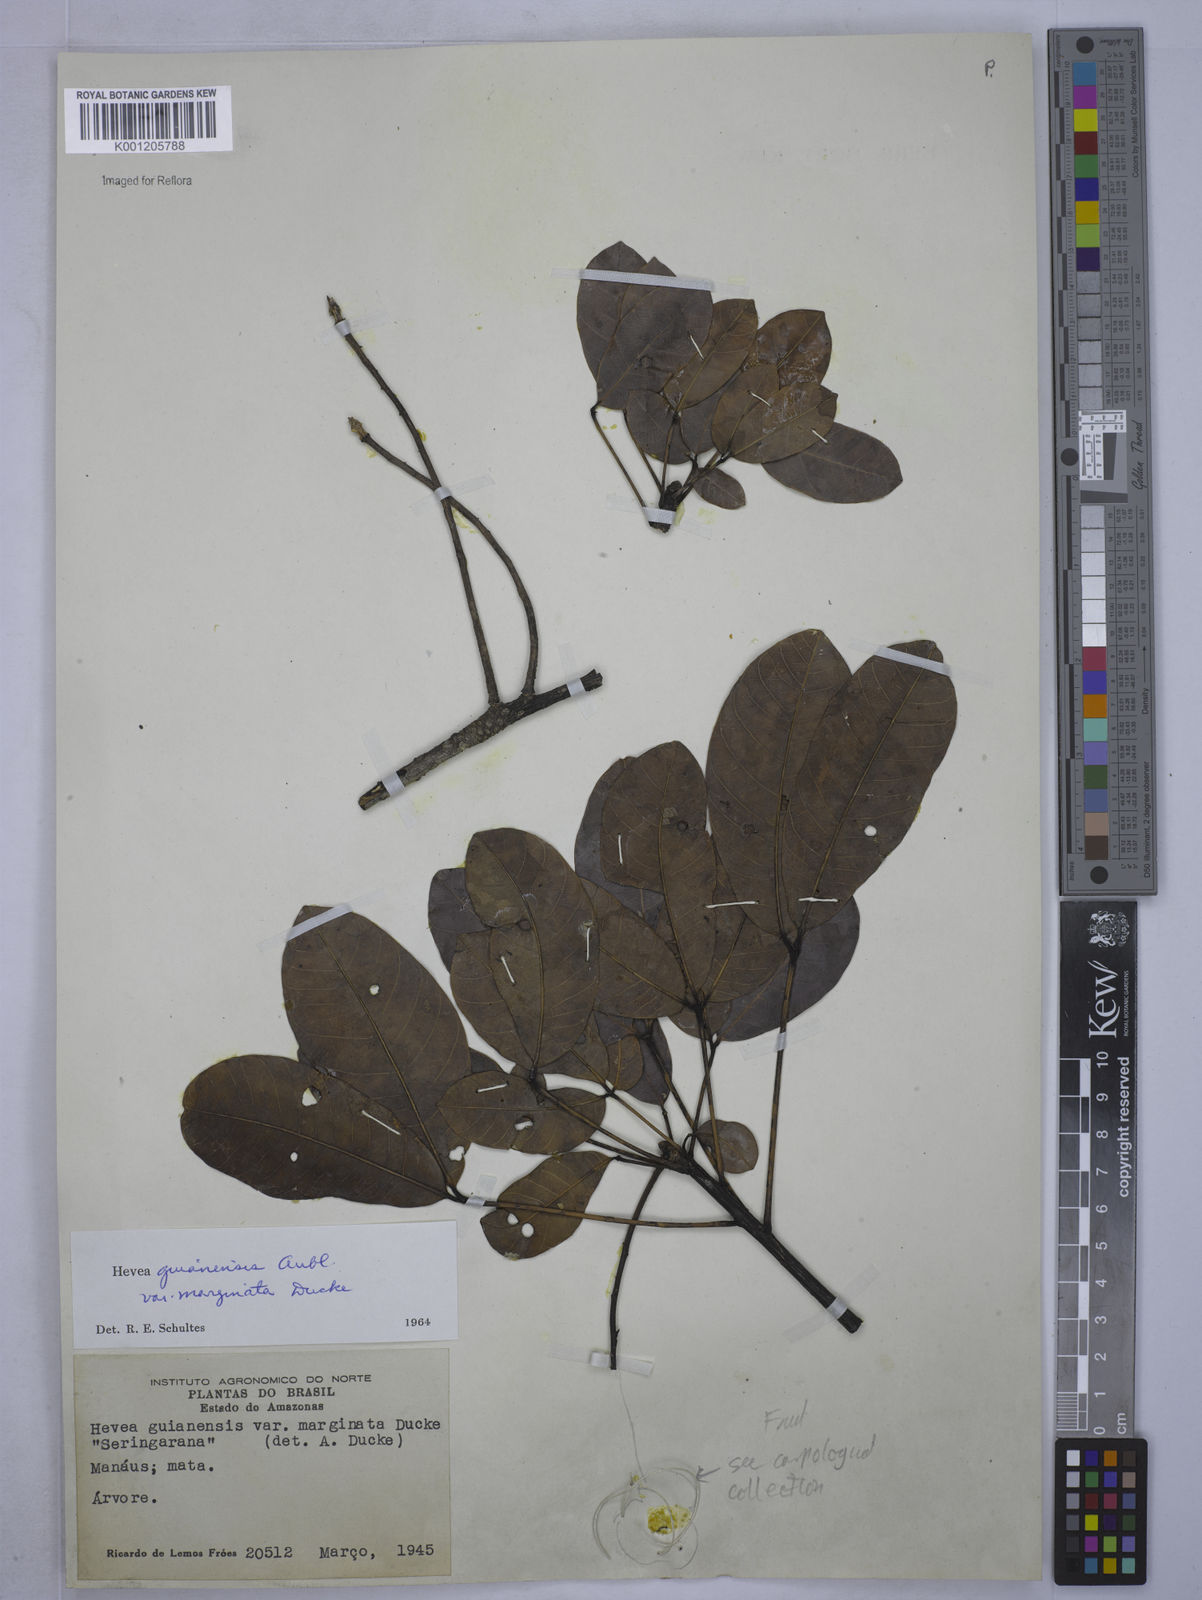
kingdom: Plantae
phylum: Tracheophyta
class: Magnoliopsida
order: Malpighiales
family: Euphorbiaceae
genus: Hevea
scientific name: Hevea guianensis
